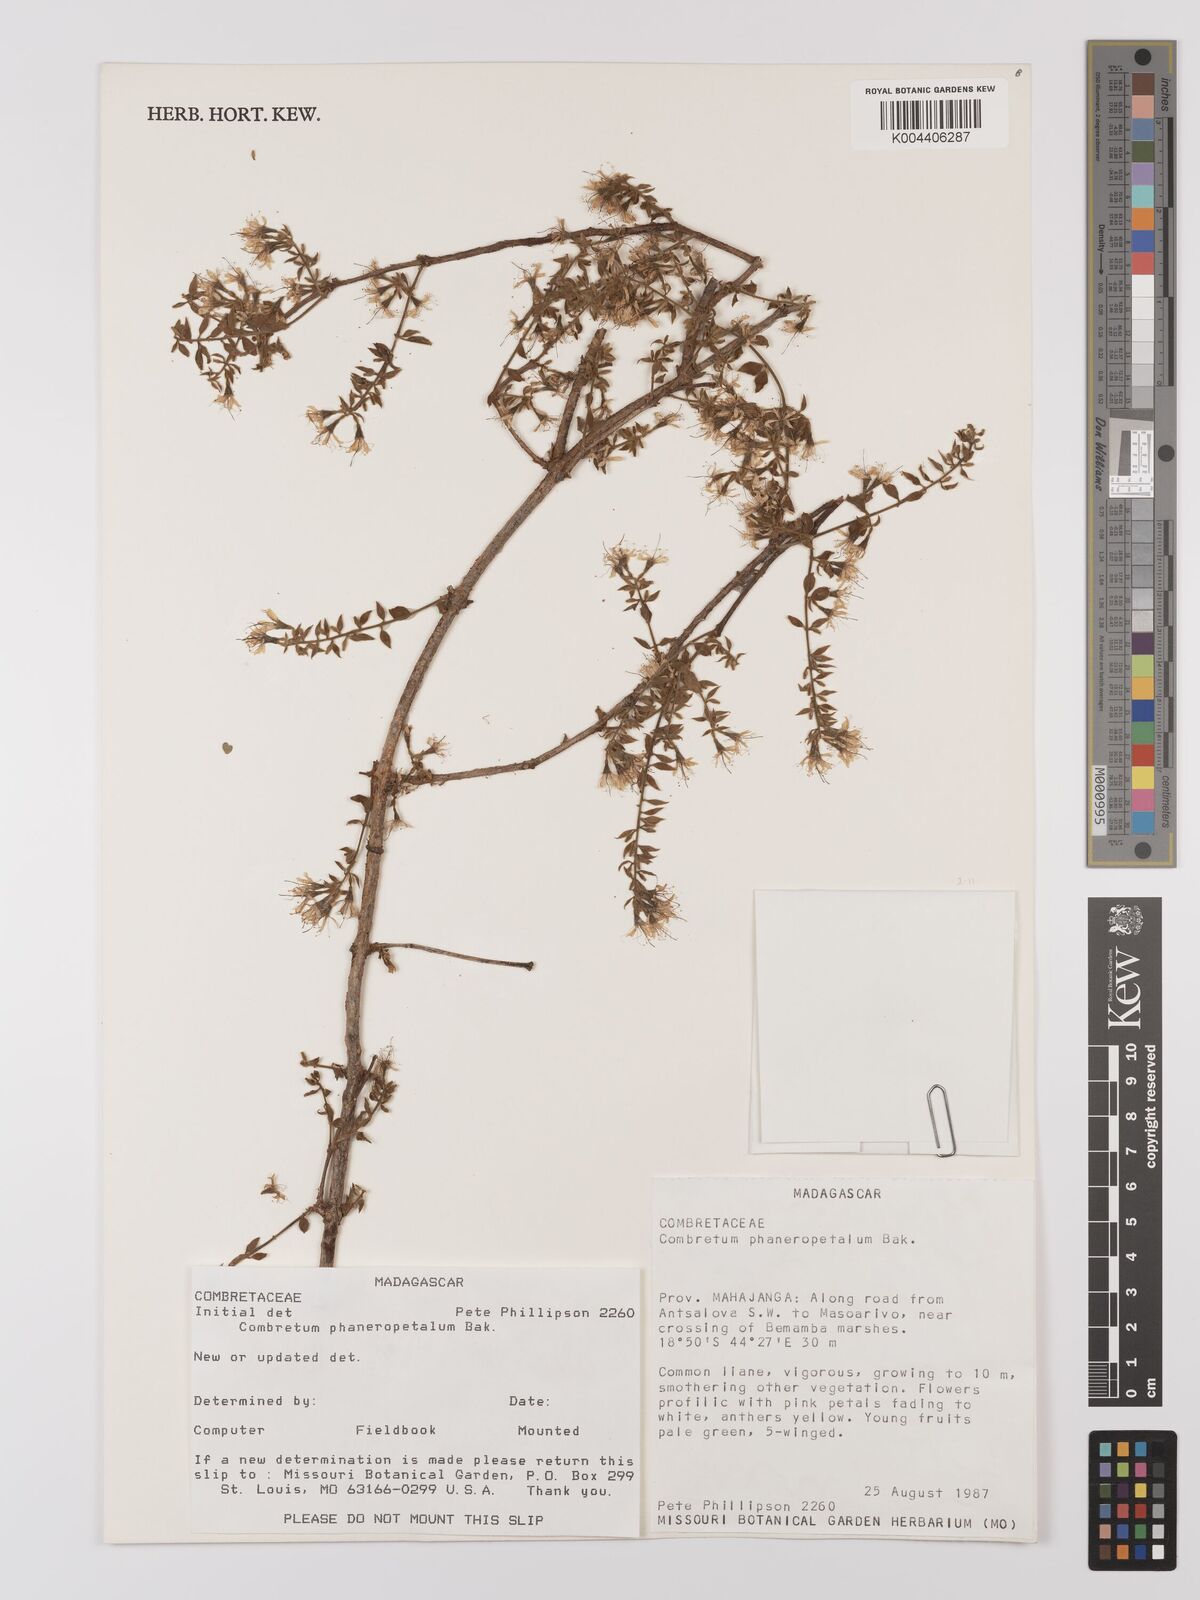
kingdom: Plantae
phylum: Tracheophyta
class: Magnoliopsida
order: Myrtales
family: Combretaceae
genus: Combretum
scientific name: Combretum albiflorum
